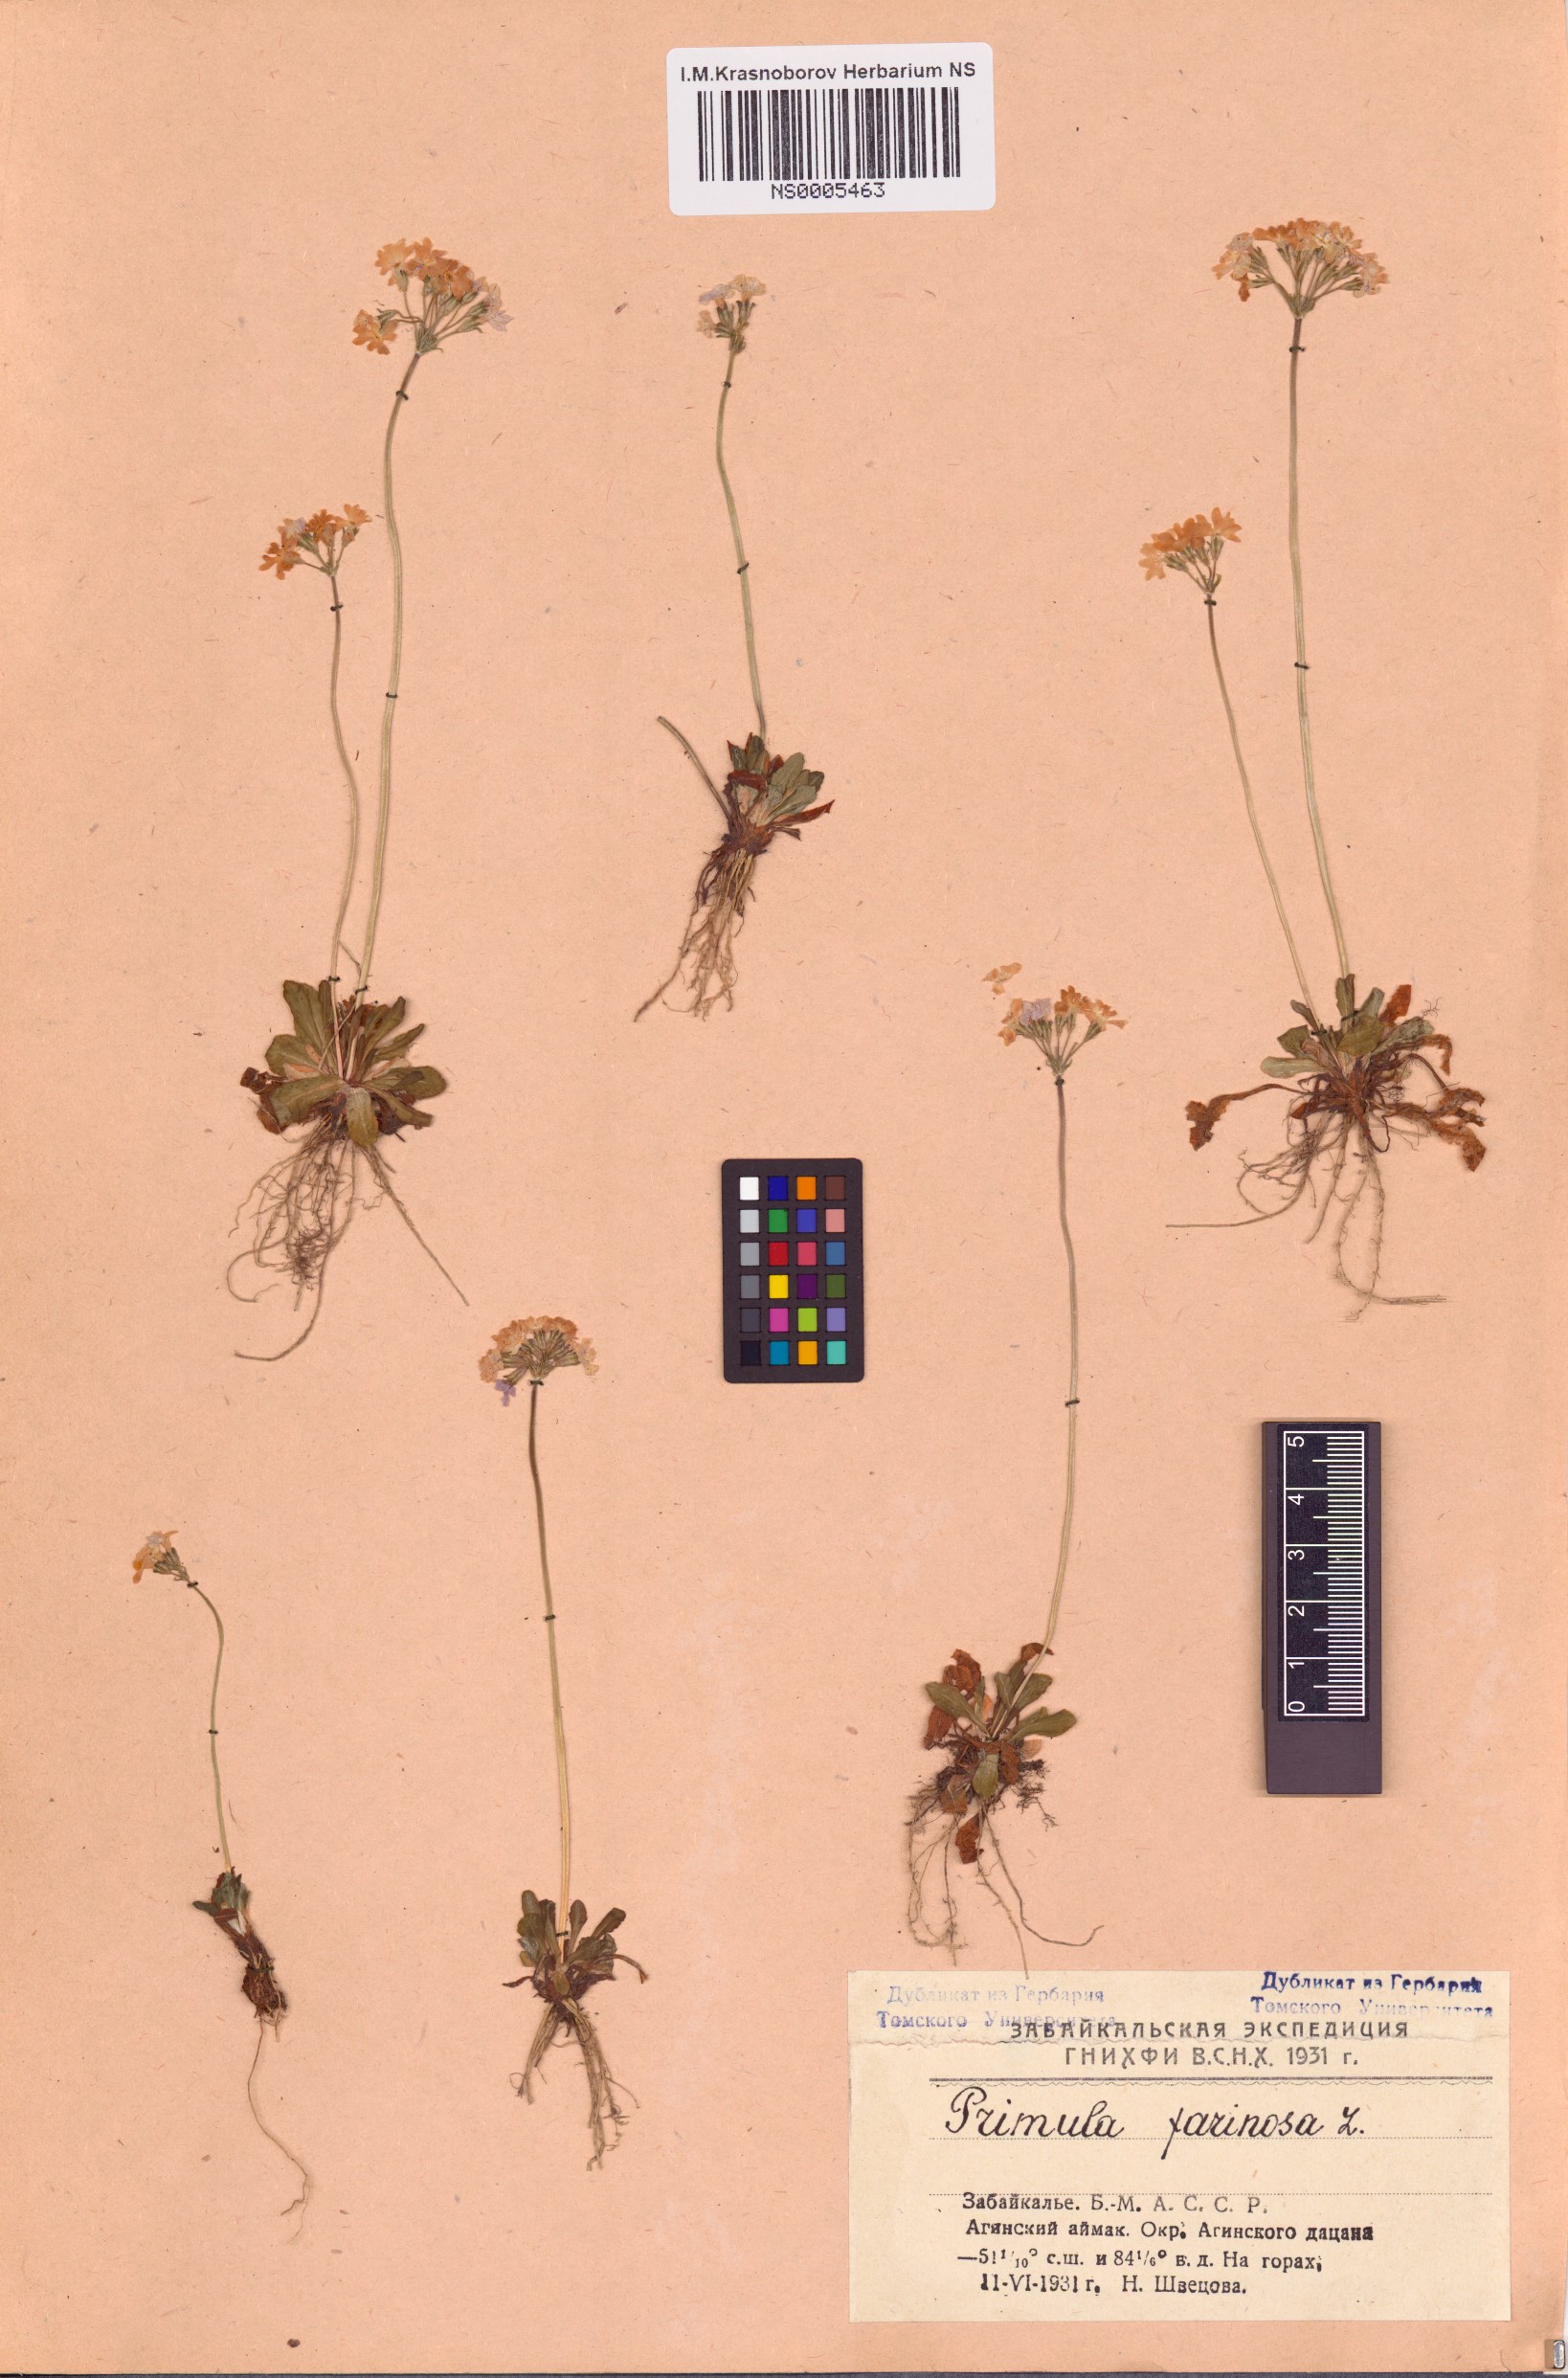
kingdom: Plantae
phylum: Tracheophyta
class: Magnoliopsida
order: Ericales
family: Primulaceae
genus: Primula
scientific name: Primula farinosa
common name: Bird's-eye primrose
